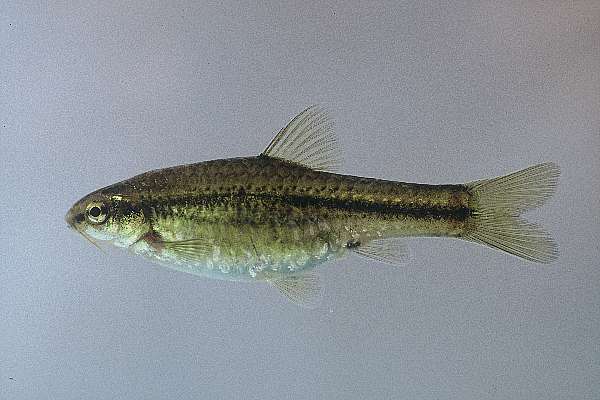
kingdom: Animalia
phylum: Chordata
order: Cypriniformes
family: Cyprinidae
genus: Barbus
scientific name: Barbus
